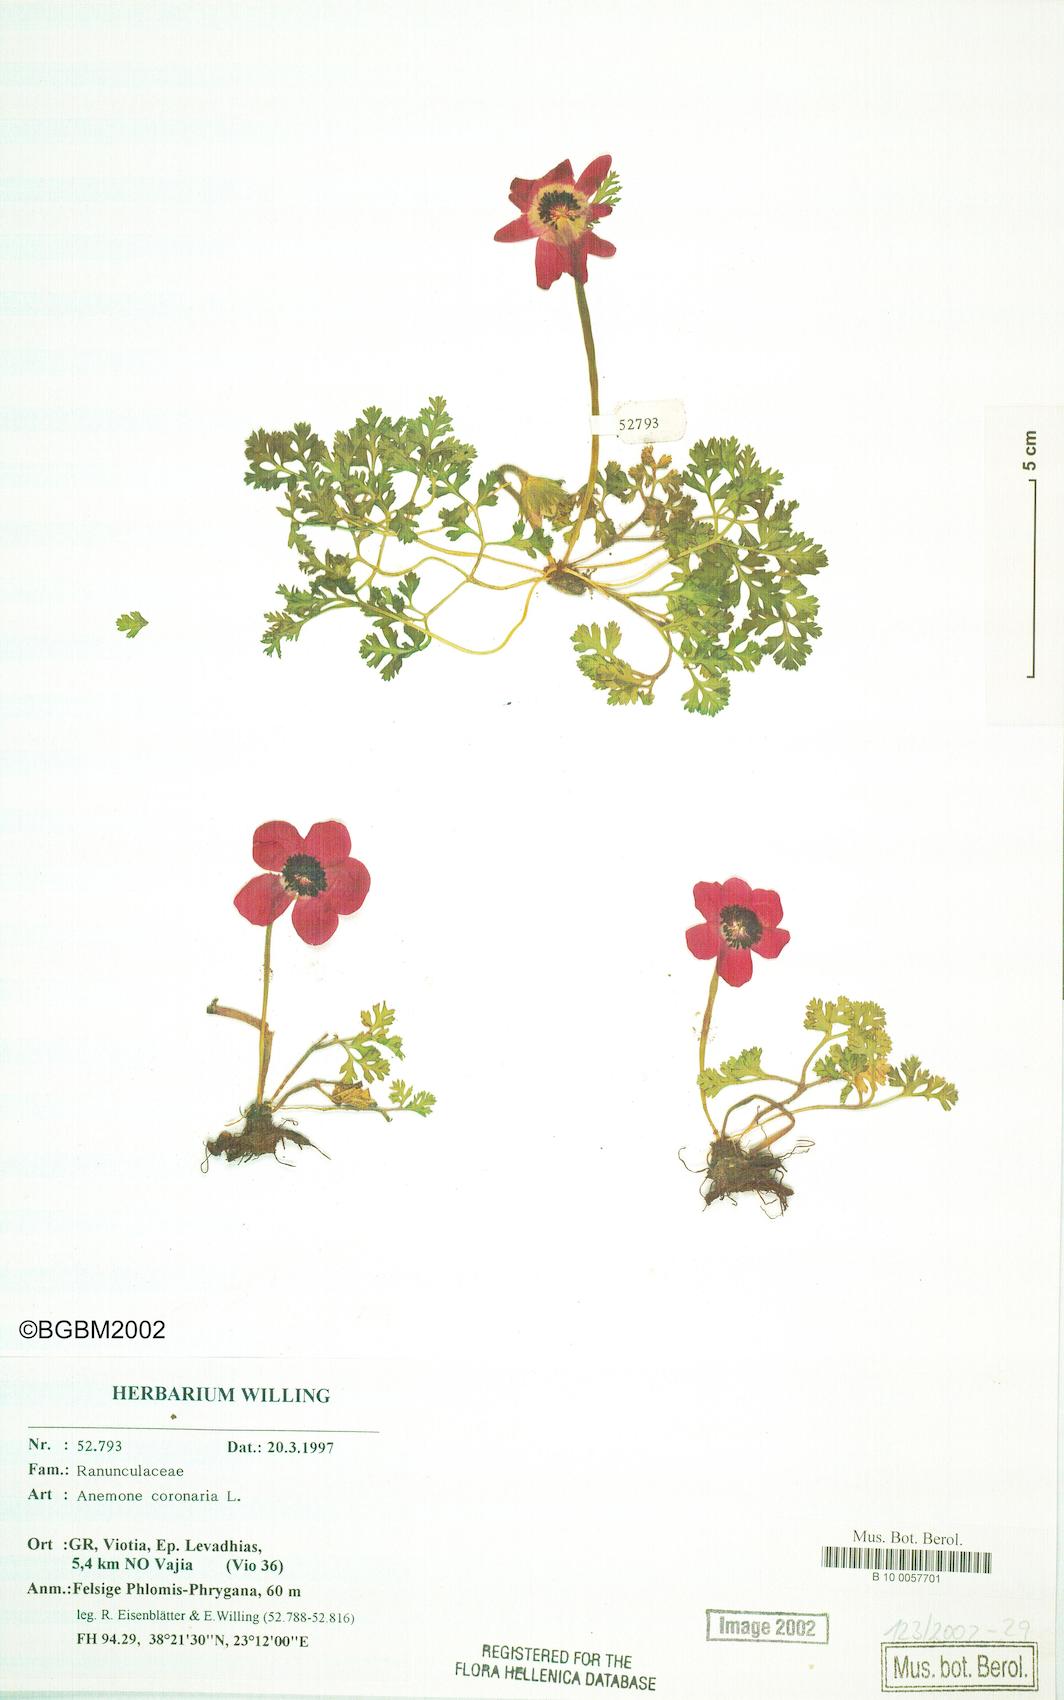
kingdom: Plantae
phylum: Tracheophyta
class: Magnoliopsida
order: Ranunculales
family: Ranunculaceae
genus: Anemone
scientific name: Anemone coronaria
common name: Poppy anemone
